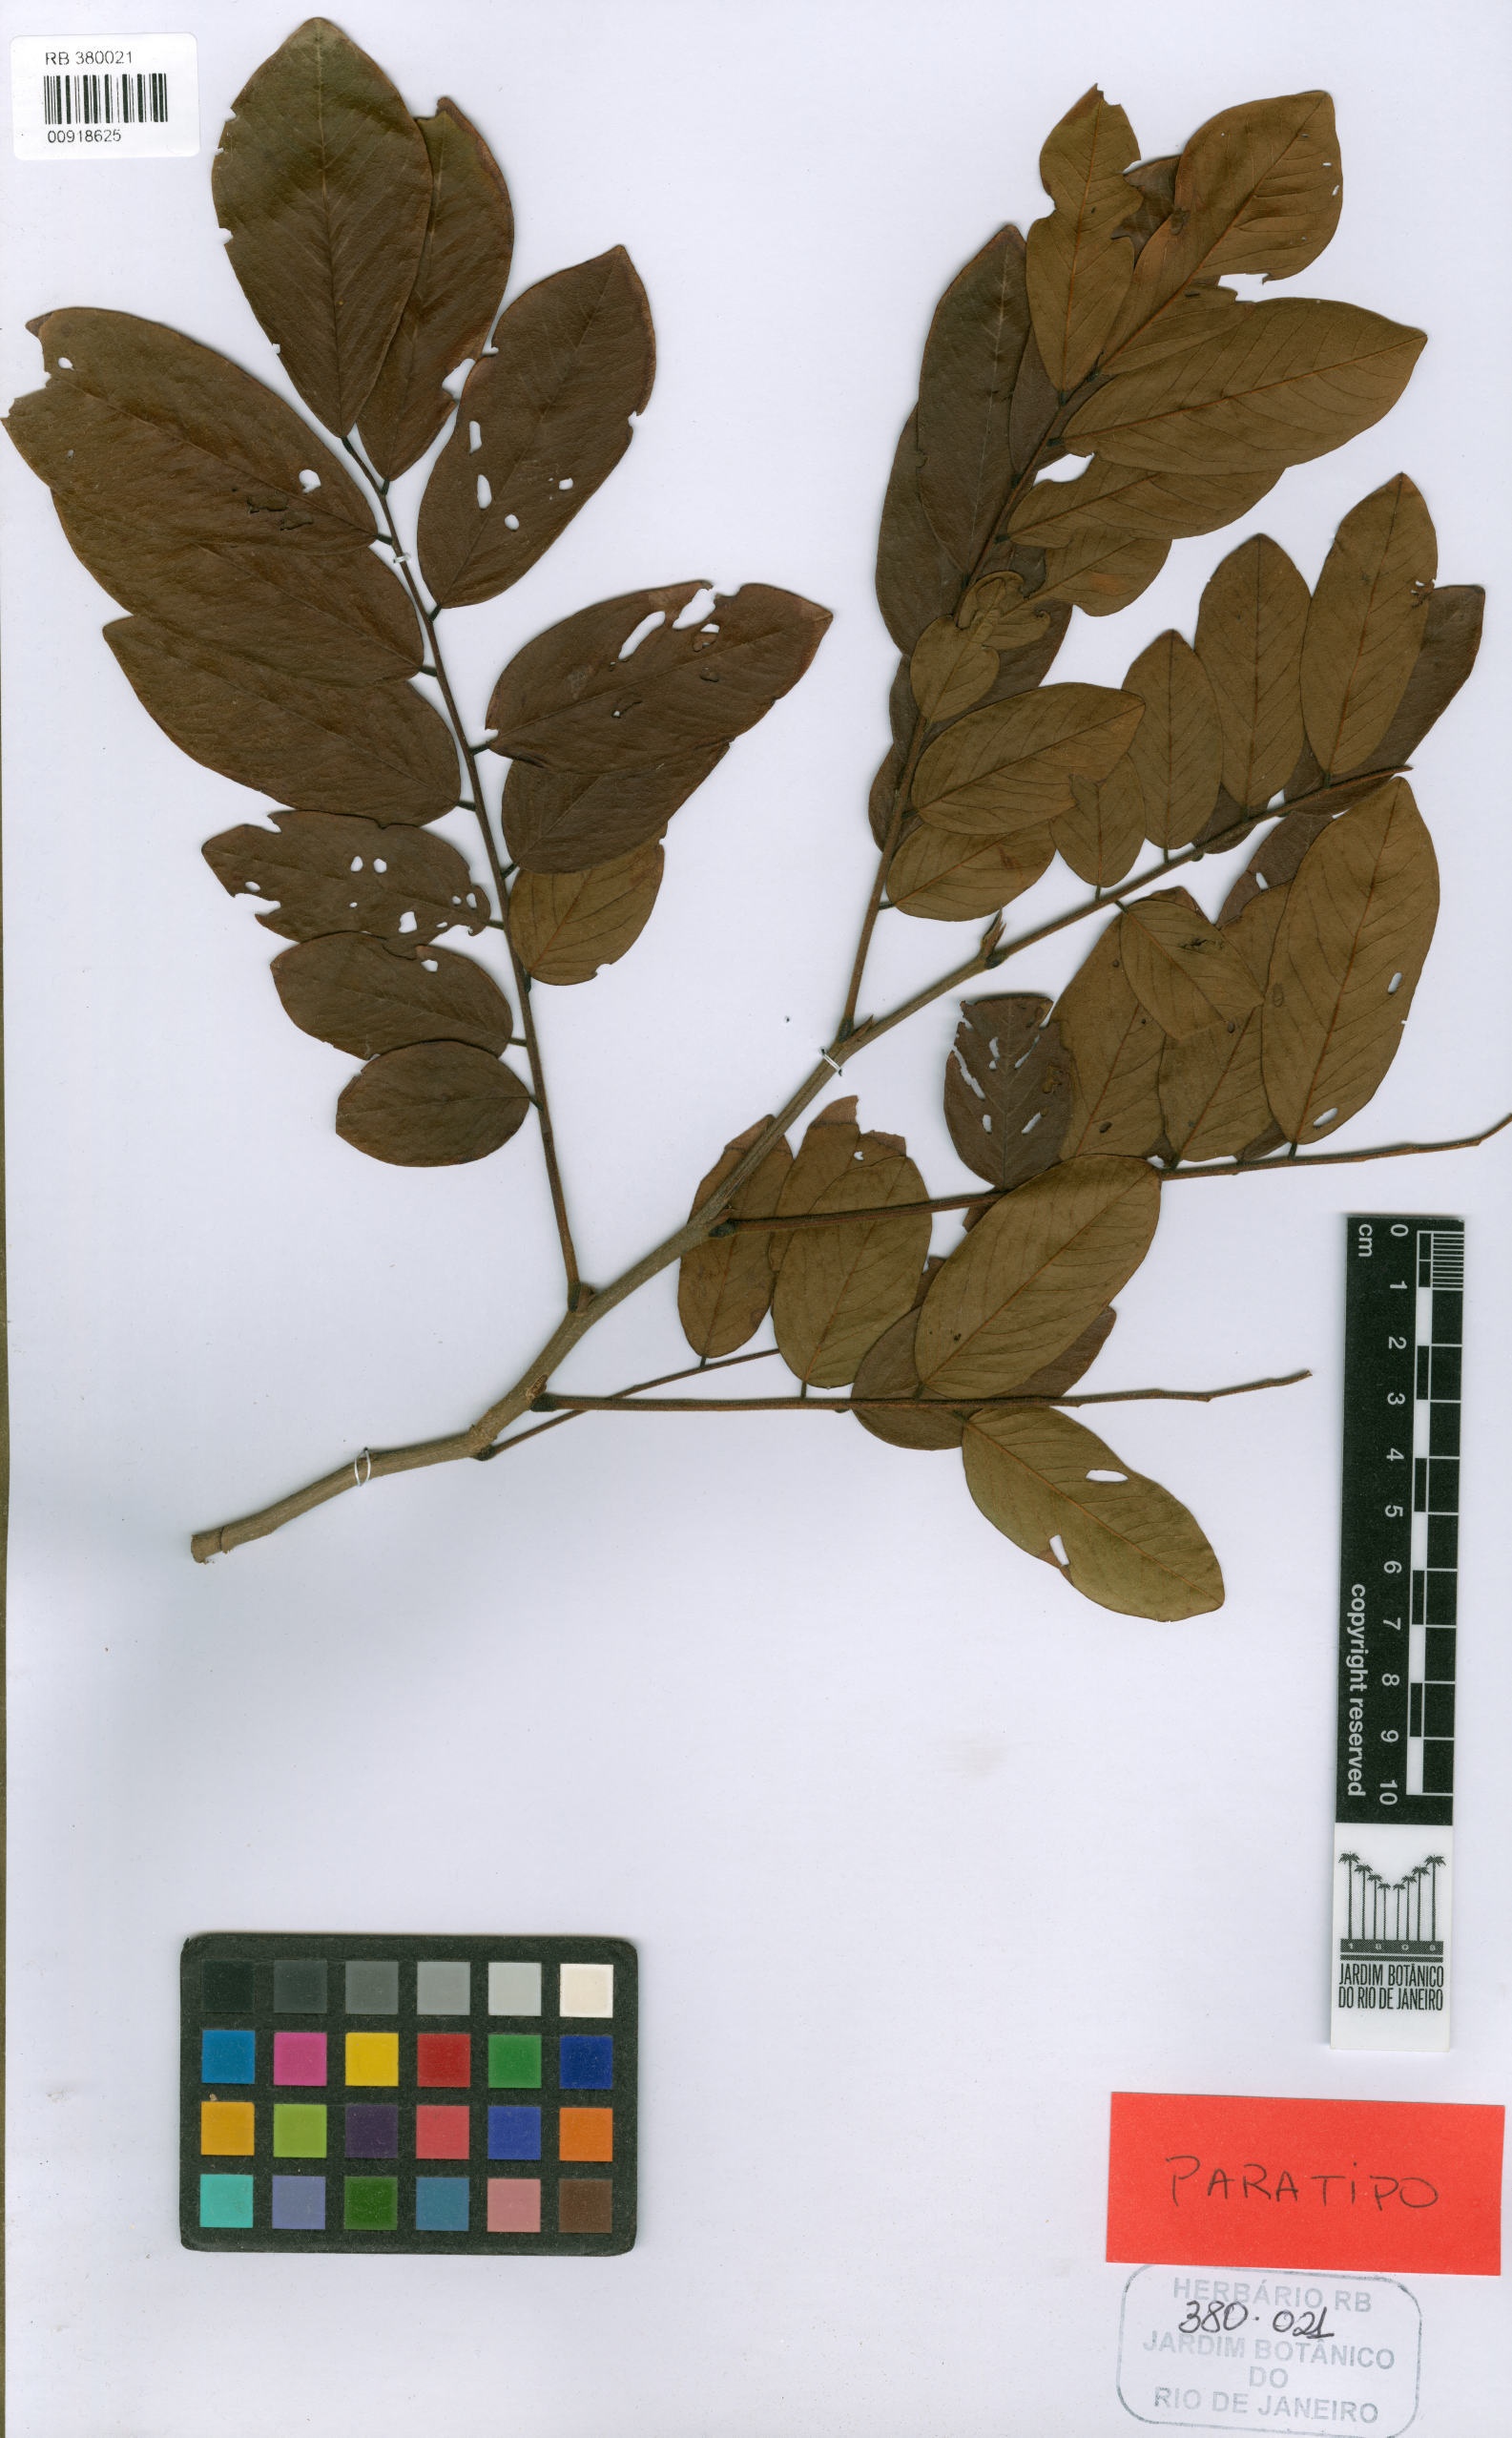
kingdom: Plantae
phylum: Tracheophyta
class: Magnoliopsida
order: Fabales
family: Fabaceae
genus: Machaerium
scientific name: Machaerium robsonianum
